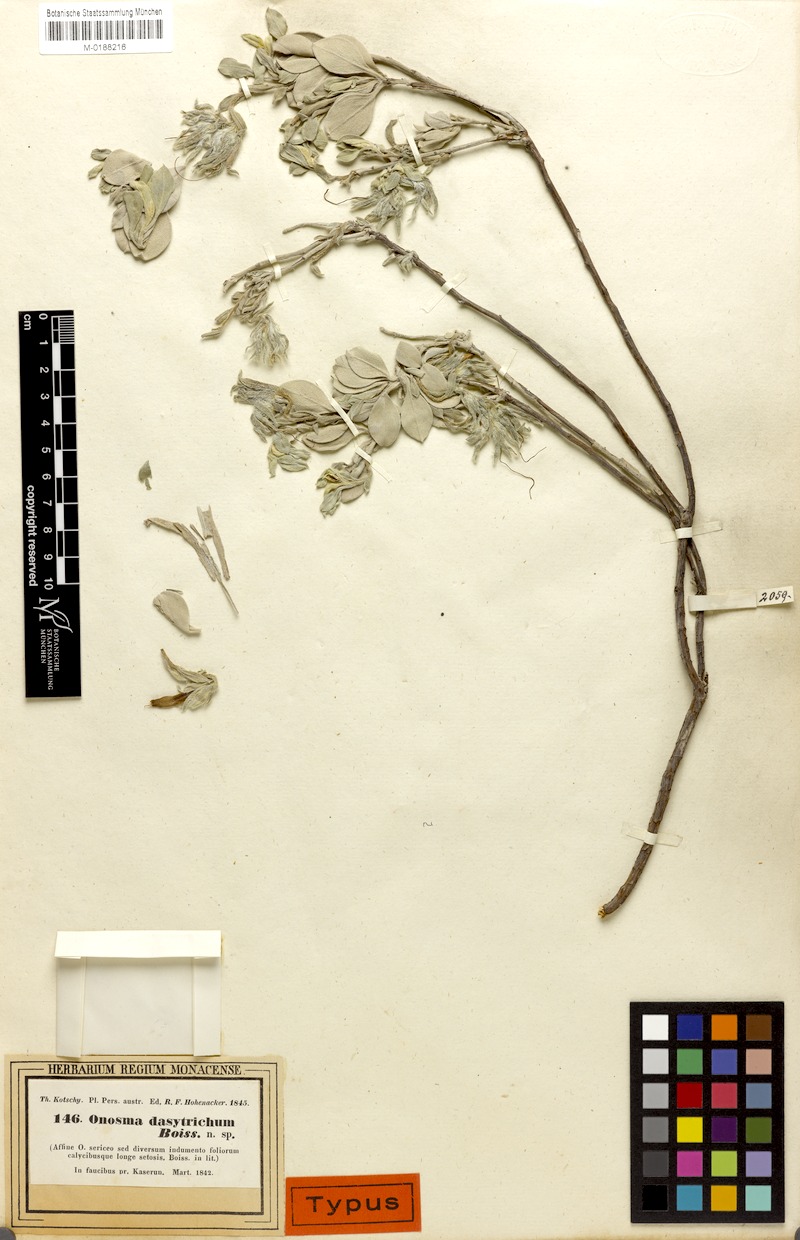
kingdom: Plantae
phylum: Tracheophyta
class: Magnoliopsida
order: Boraginales
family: Boraginaceae
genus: Onosma
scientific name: Onosma dasytricha
